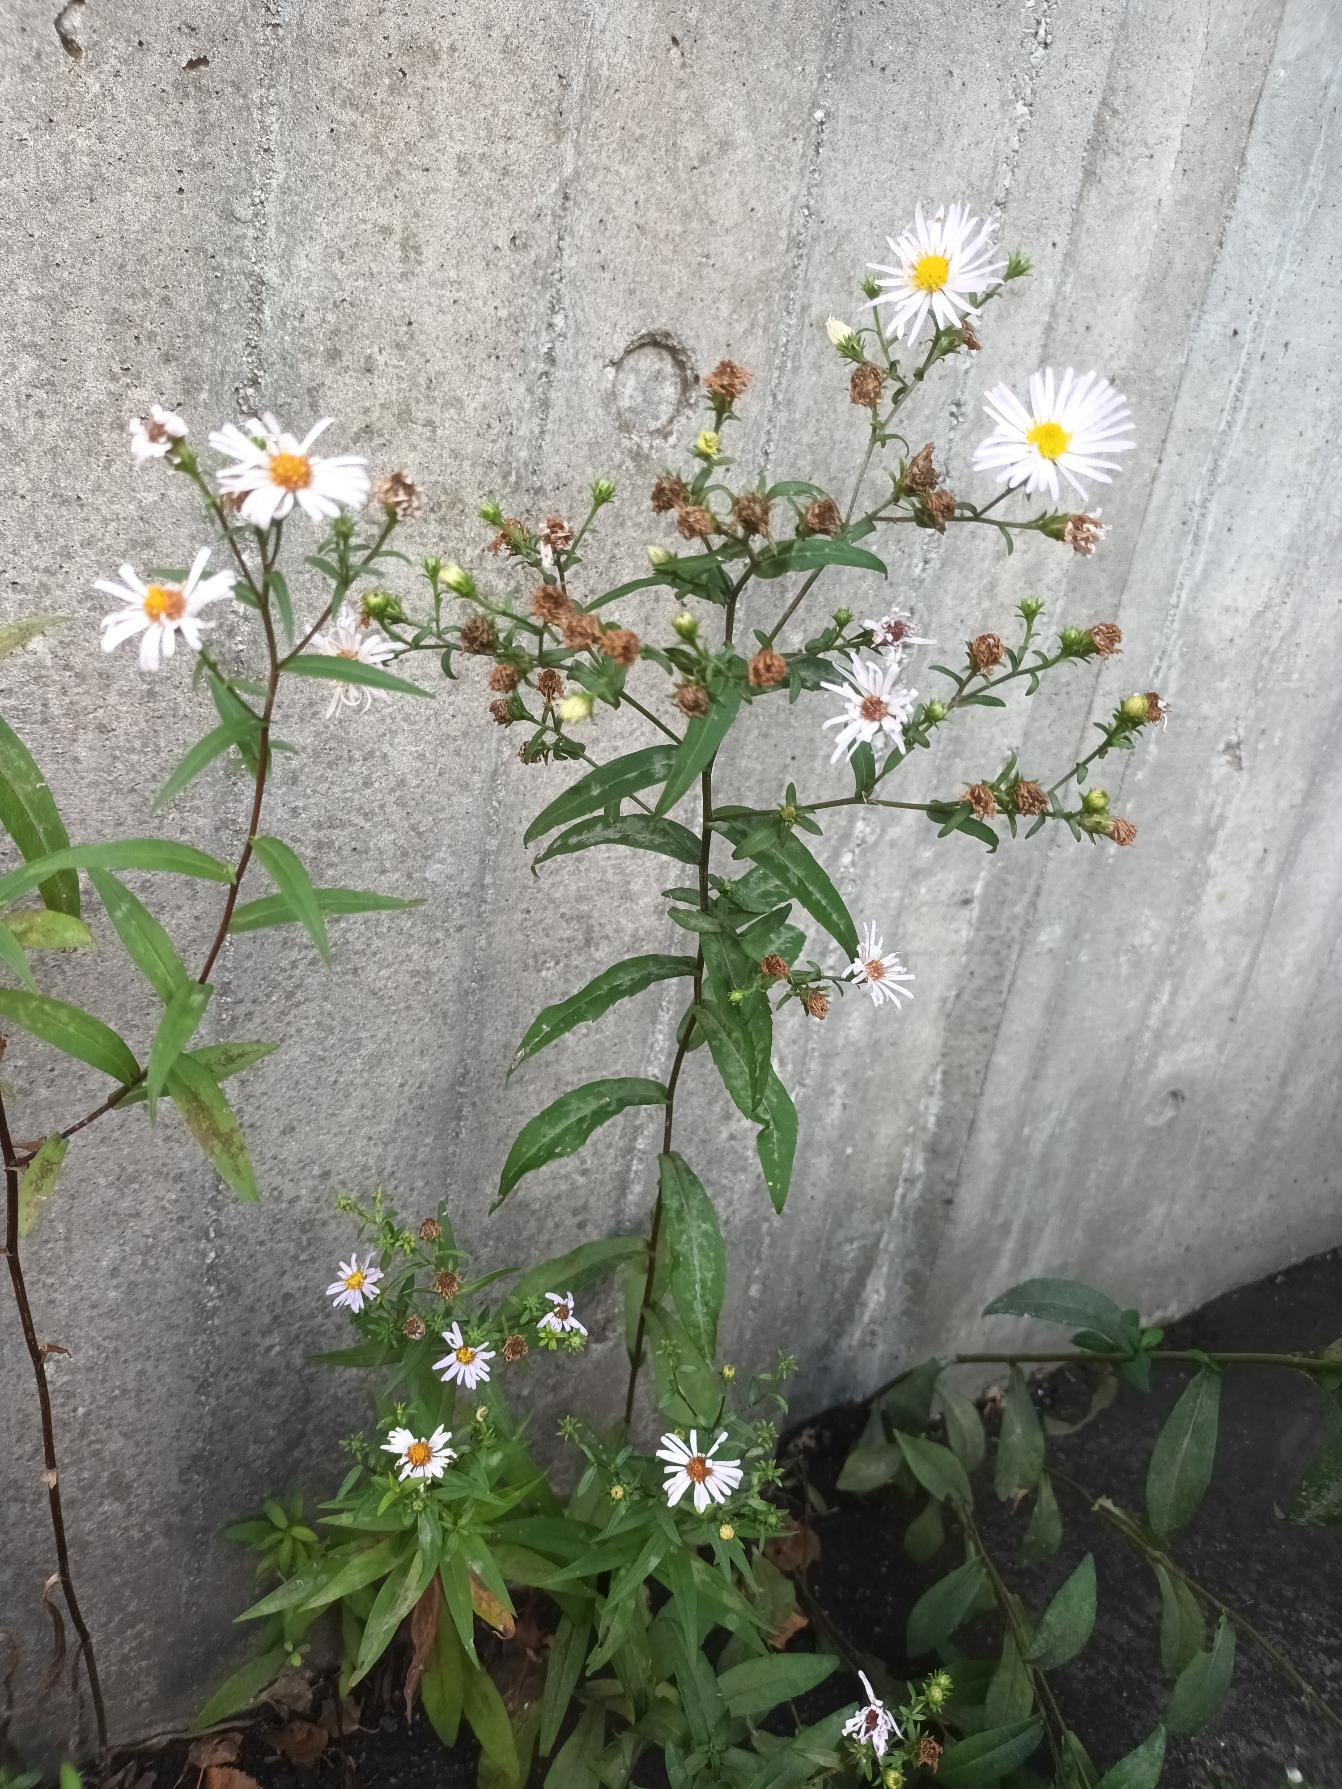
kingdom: Plantae
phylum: Tracheophyta
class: Magnoliopsida
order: Asterales
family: Asteraceae
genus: Symphyotrichum
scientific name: Symphyotrichum versicolor
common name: Broget asters
